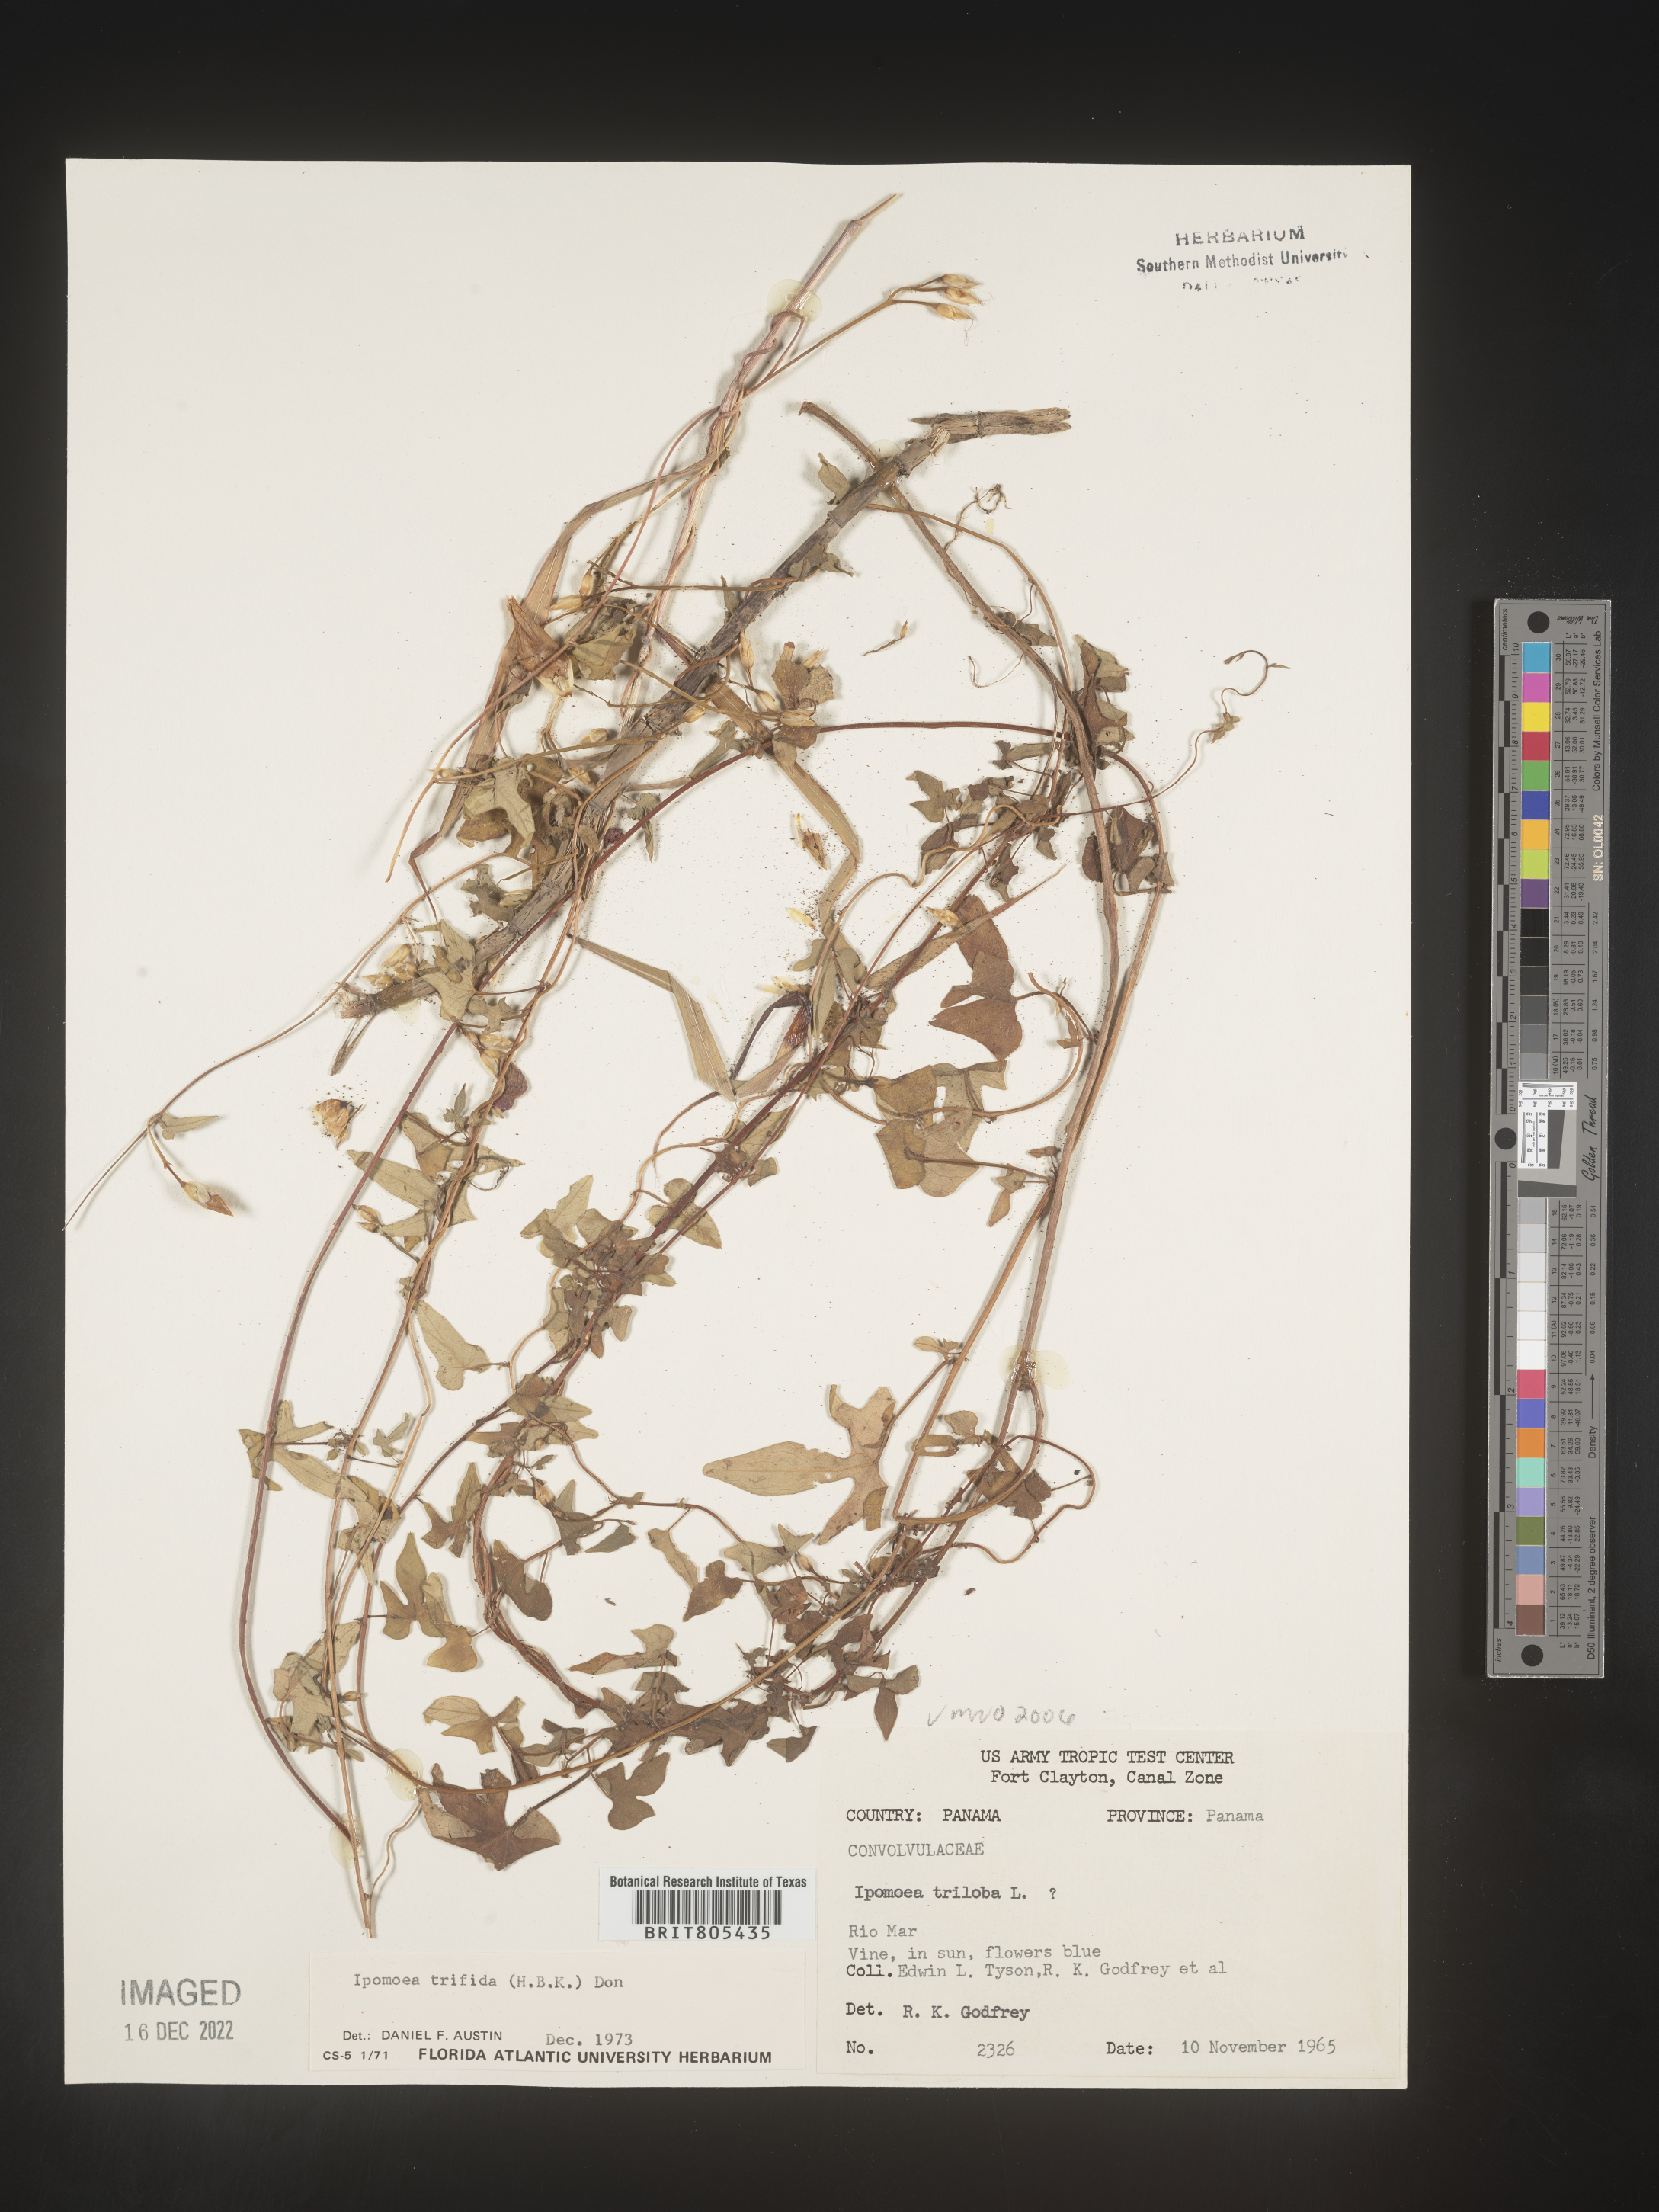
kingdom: Plantae
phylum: Tracheophyta
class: Magnoliopsida
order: Solanales
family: Convolvulaceae
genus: Ipomoea
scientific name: Ipomoea
